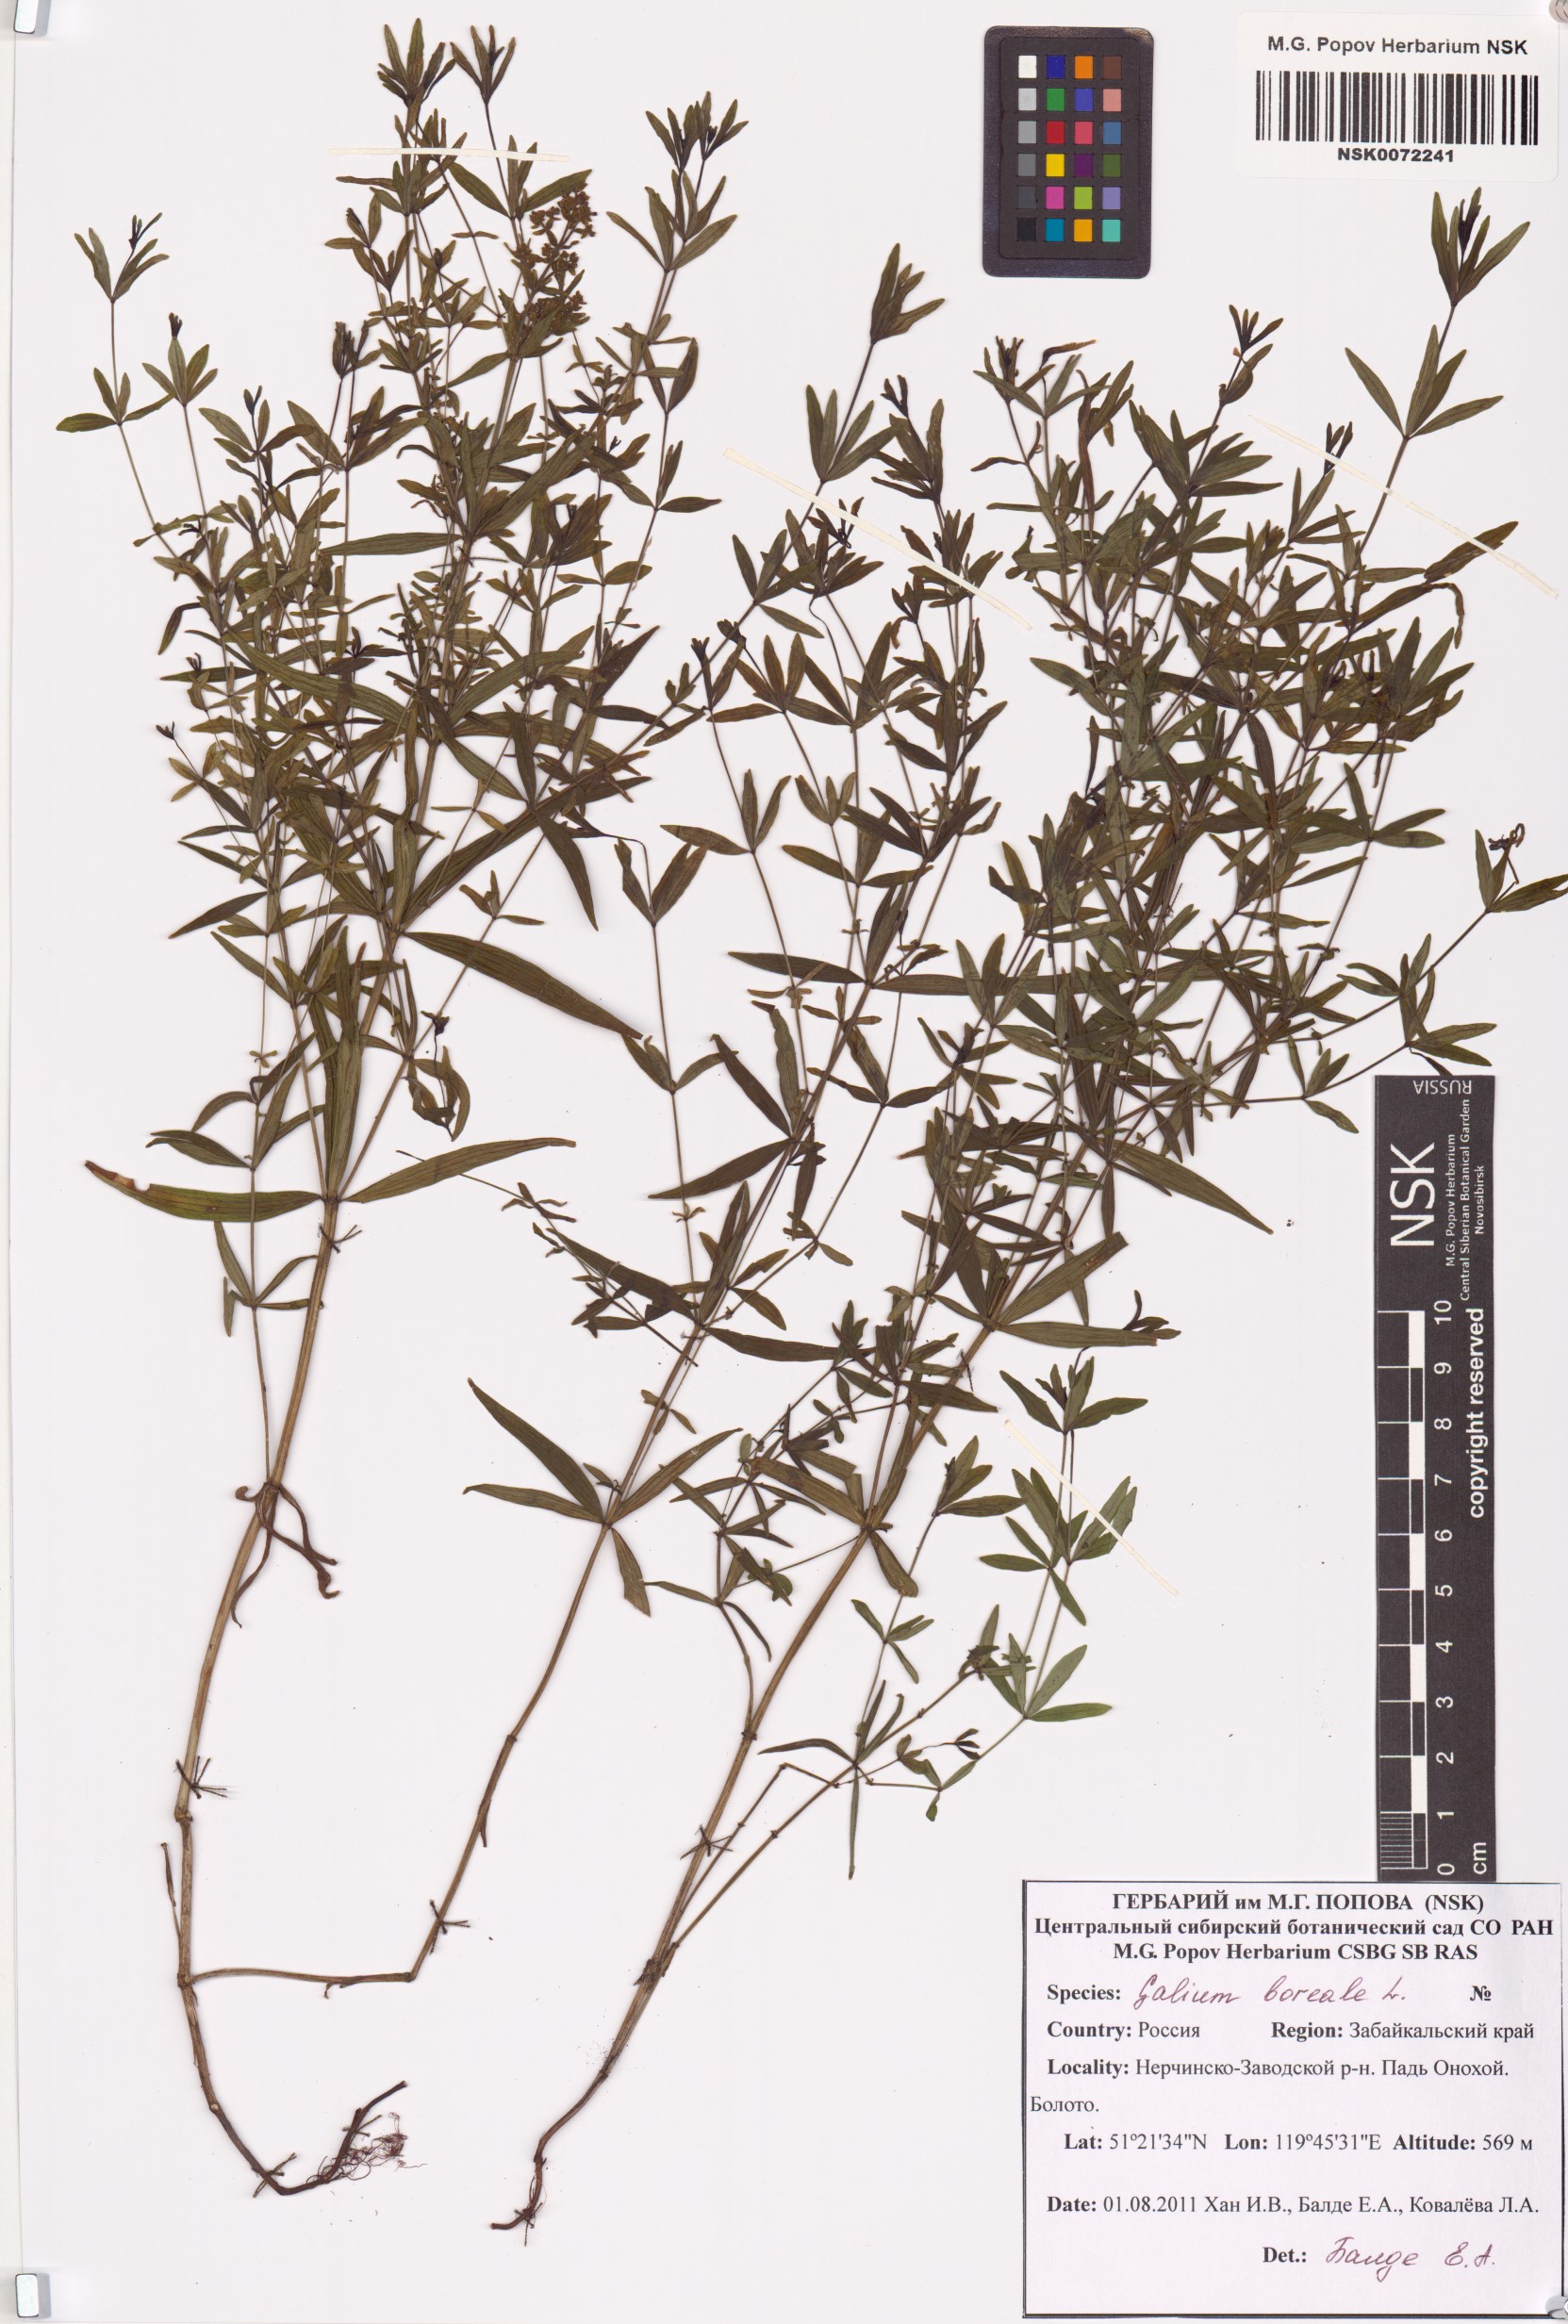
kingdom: Plantae
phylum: Tracheophyta
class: Magnoliopsida
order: Gentianales
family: Rubiaceae
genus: Galium
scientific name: Galium boreale
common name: Northern bedstraw
